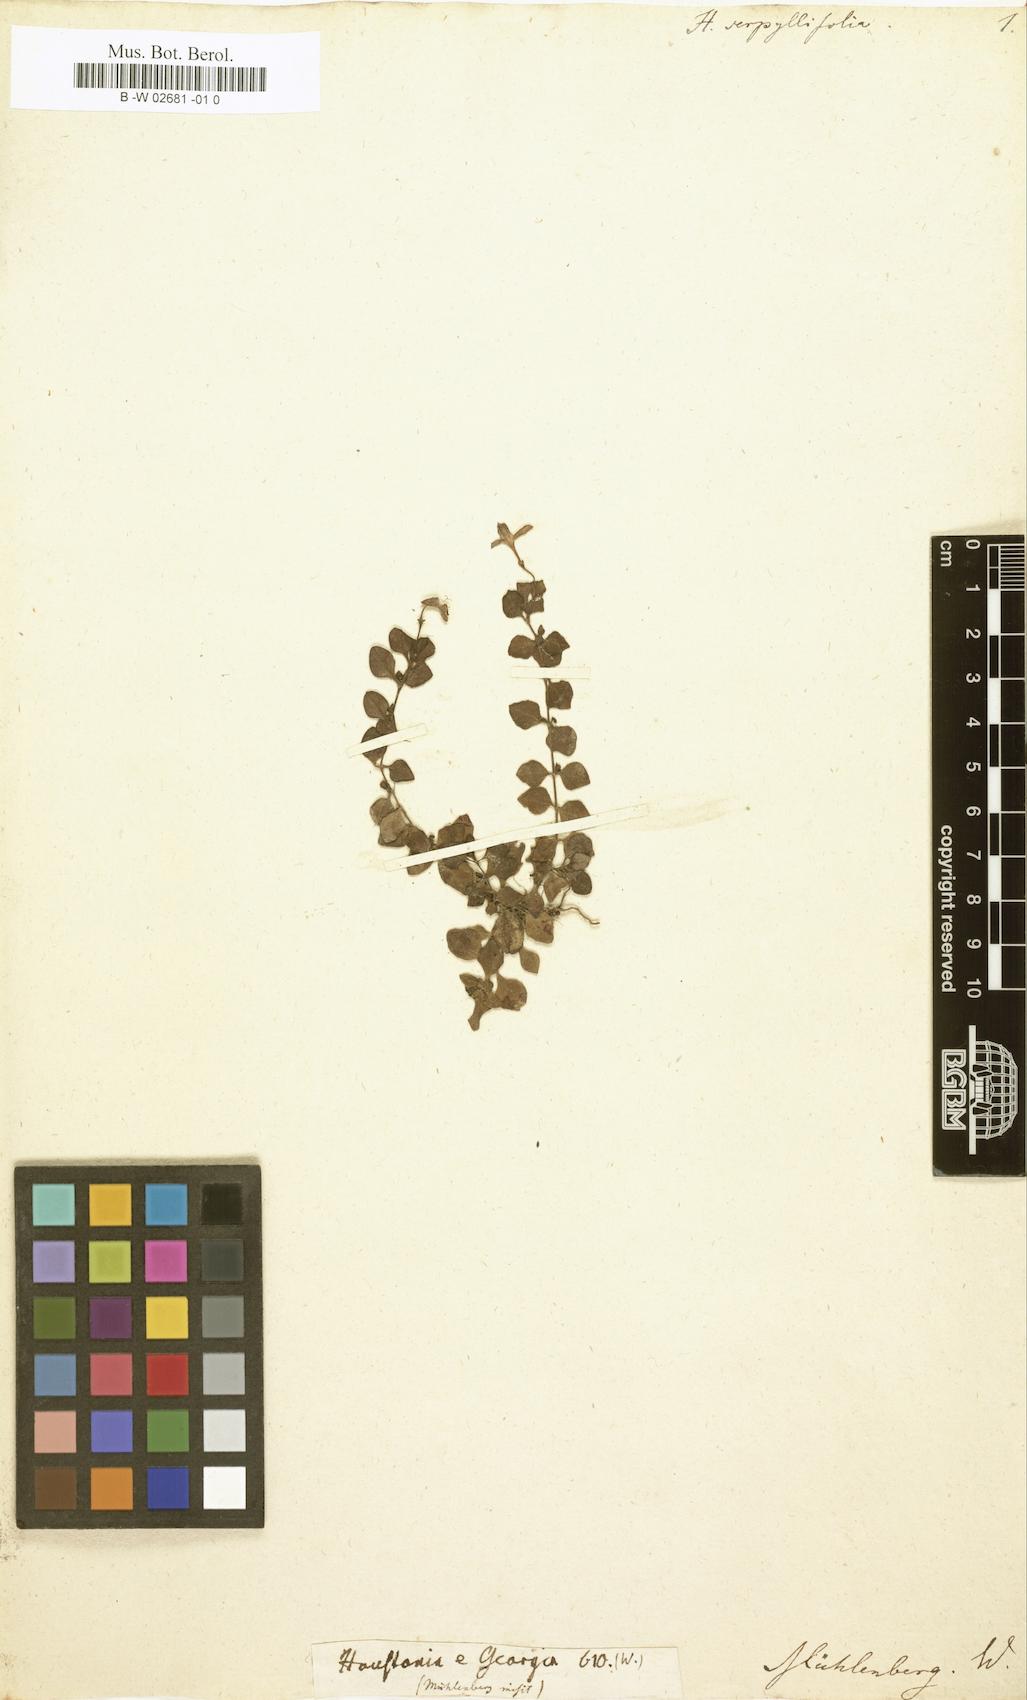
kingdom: Plantae
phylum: Tracheophyta
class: Magnoliopsida
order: Gentianales
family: Rubiaceae
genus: Houstonia
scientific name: Houstonia serpyllifolia
